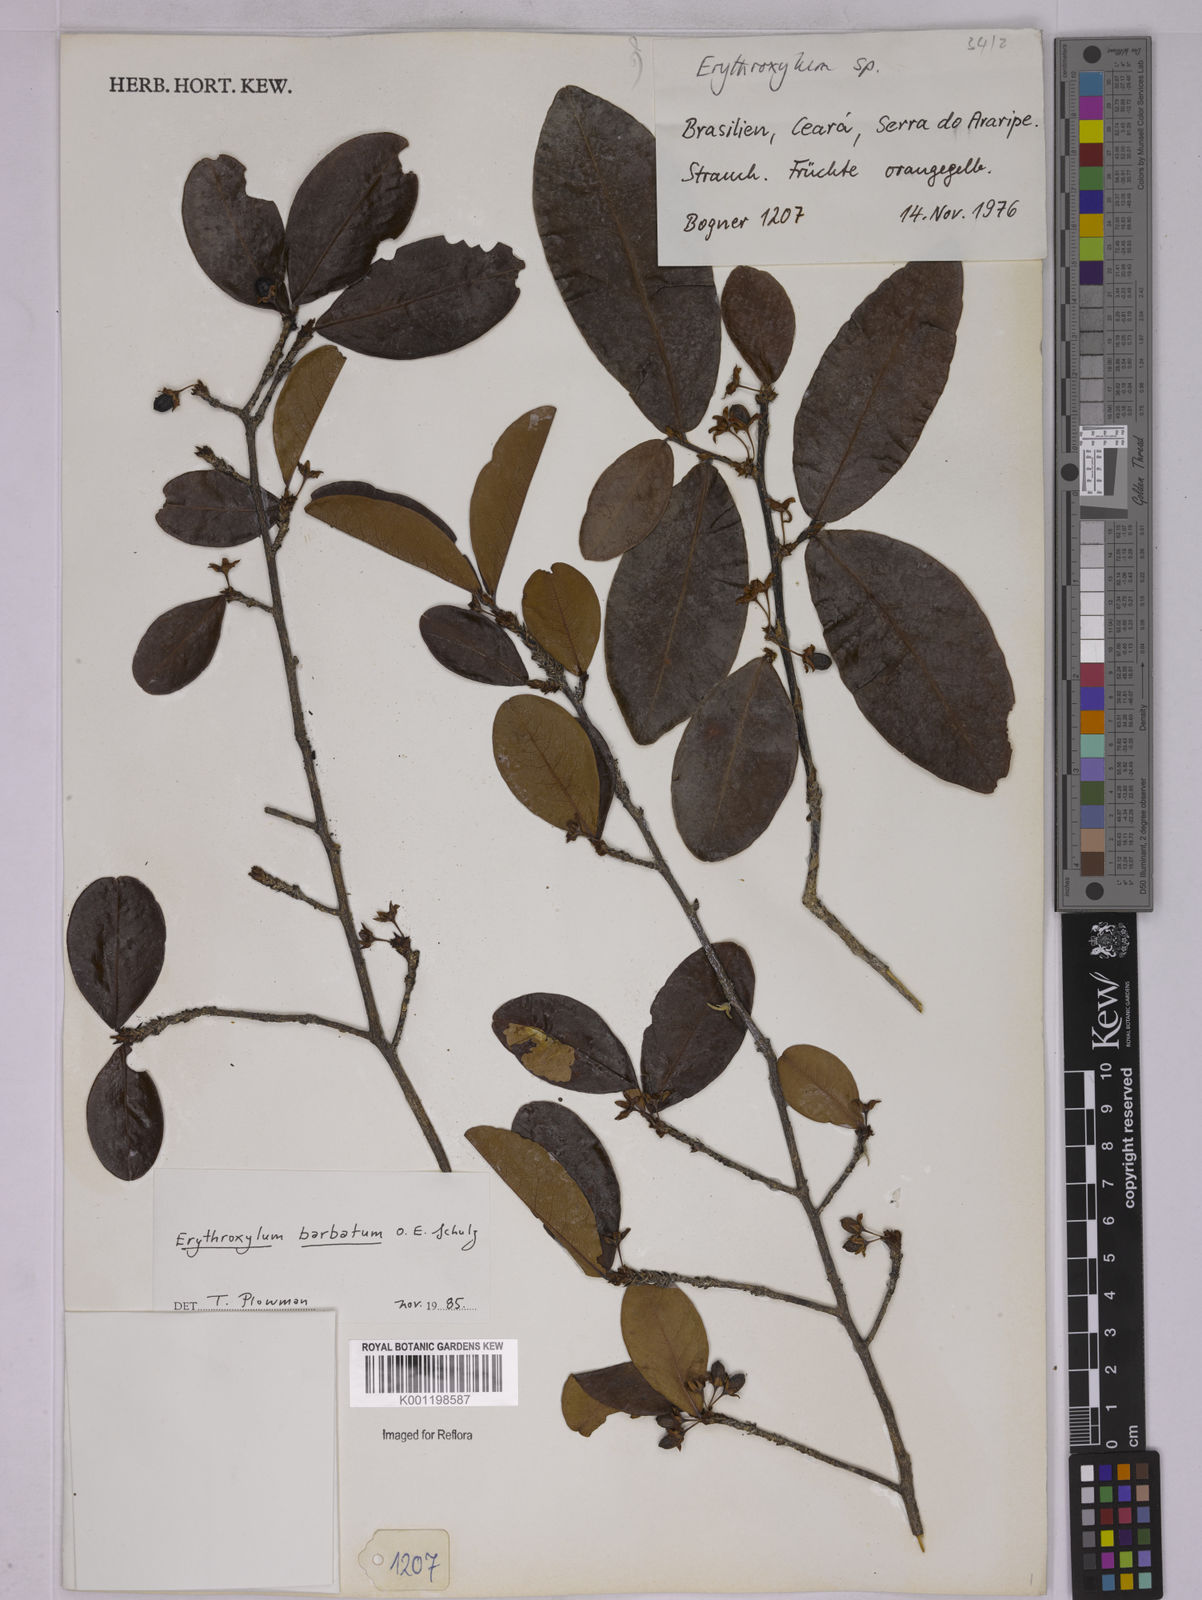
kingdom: Plantae
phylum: Tracheophyta
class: Magnoliopsida
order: Malpighiales
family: Erythroxylaceae
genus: Erythroxylum
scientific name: Erythroxylum barbatum
